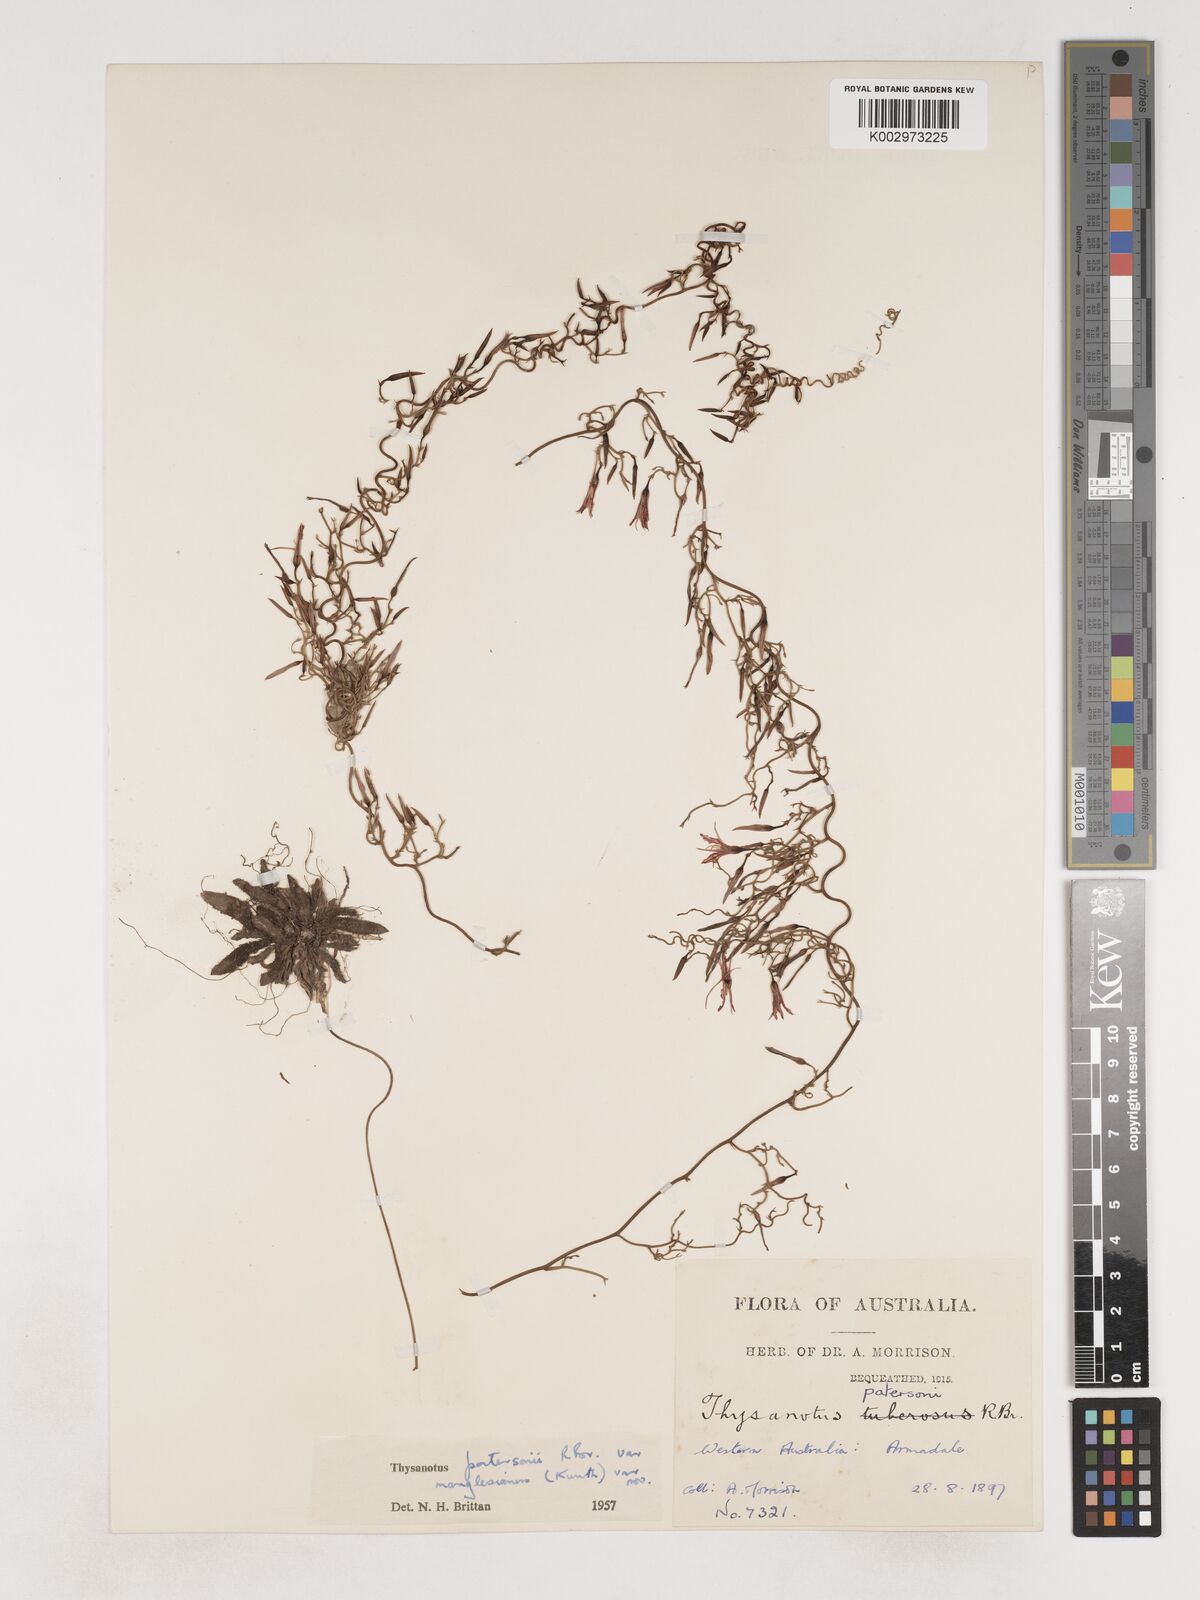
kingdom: Plantae
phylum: Tracheophyta
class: Liliopsida
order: Asparagales
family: Asparagaceae
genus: Thysanotus
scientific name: Thysanotus manglesianus
